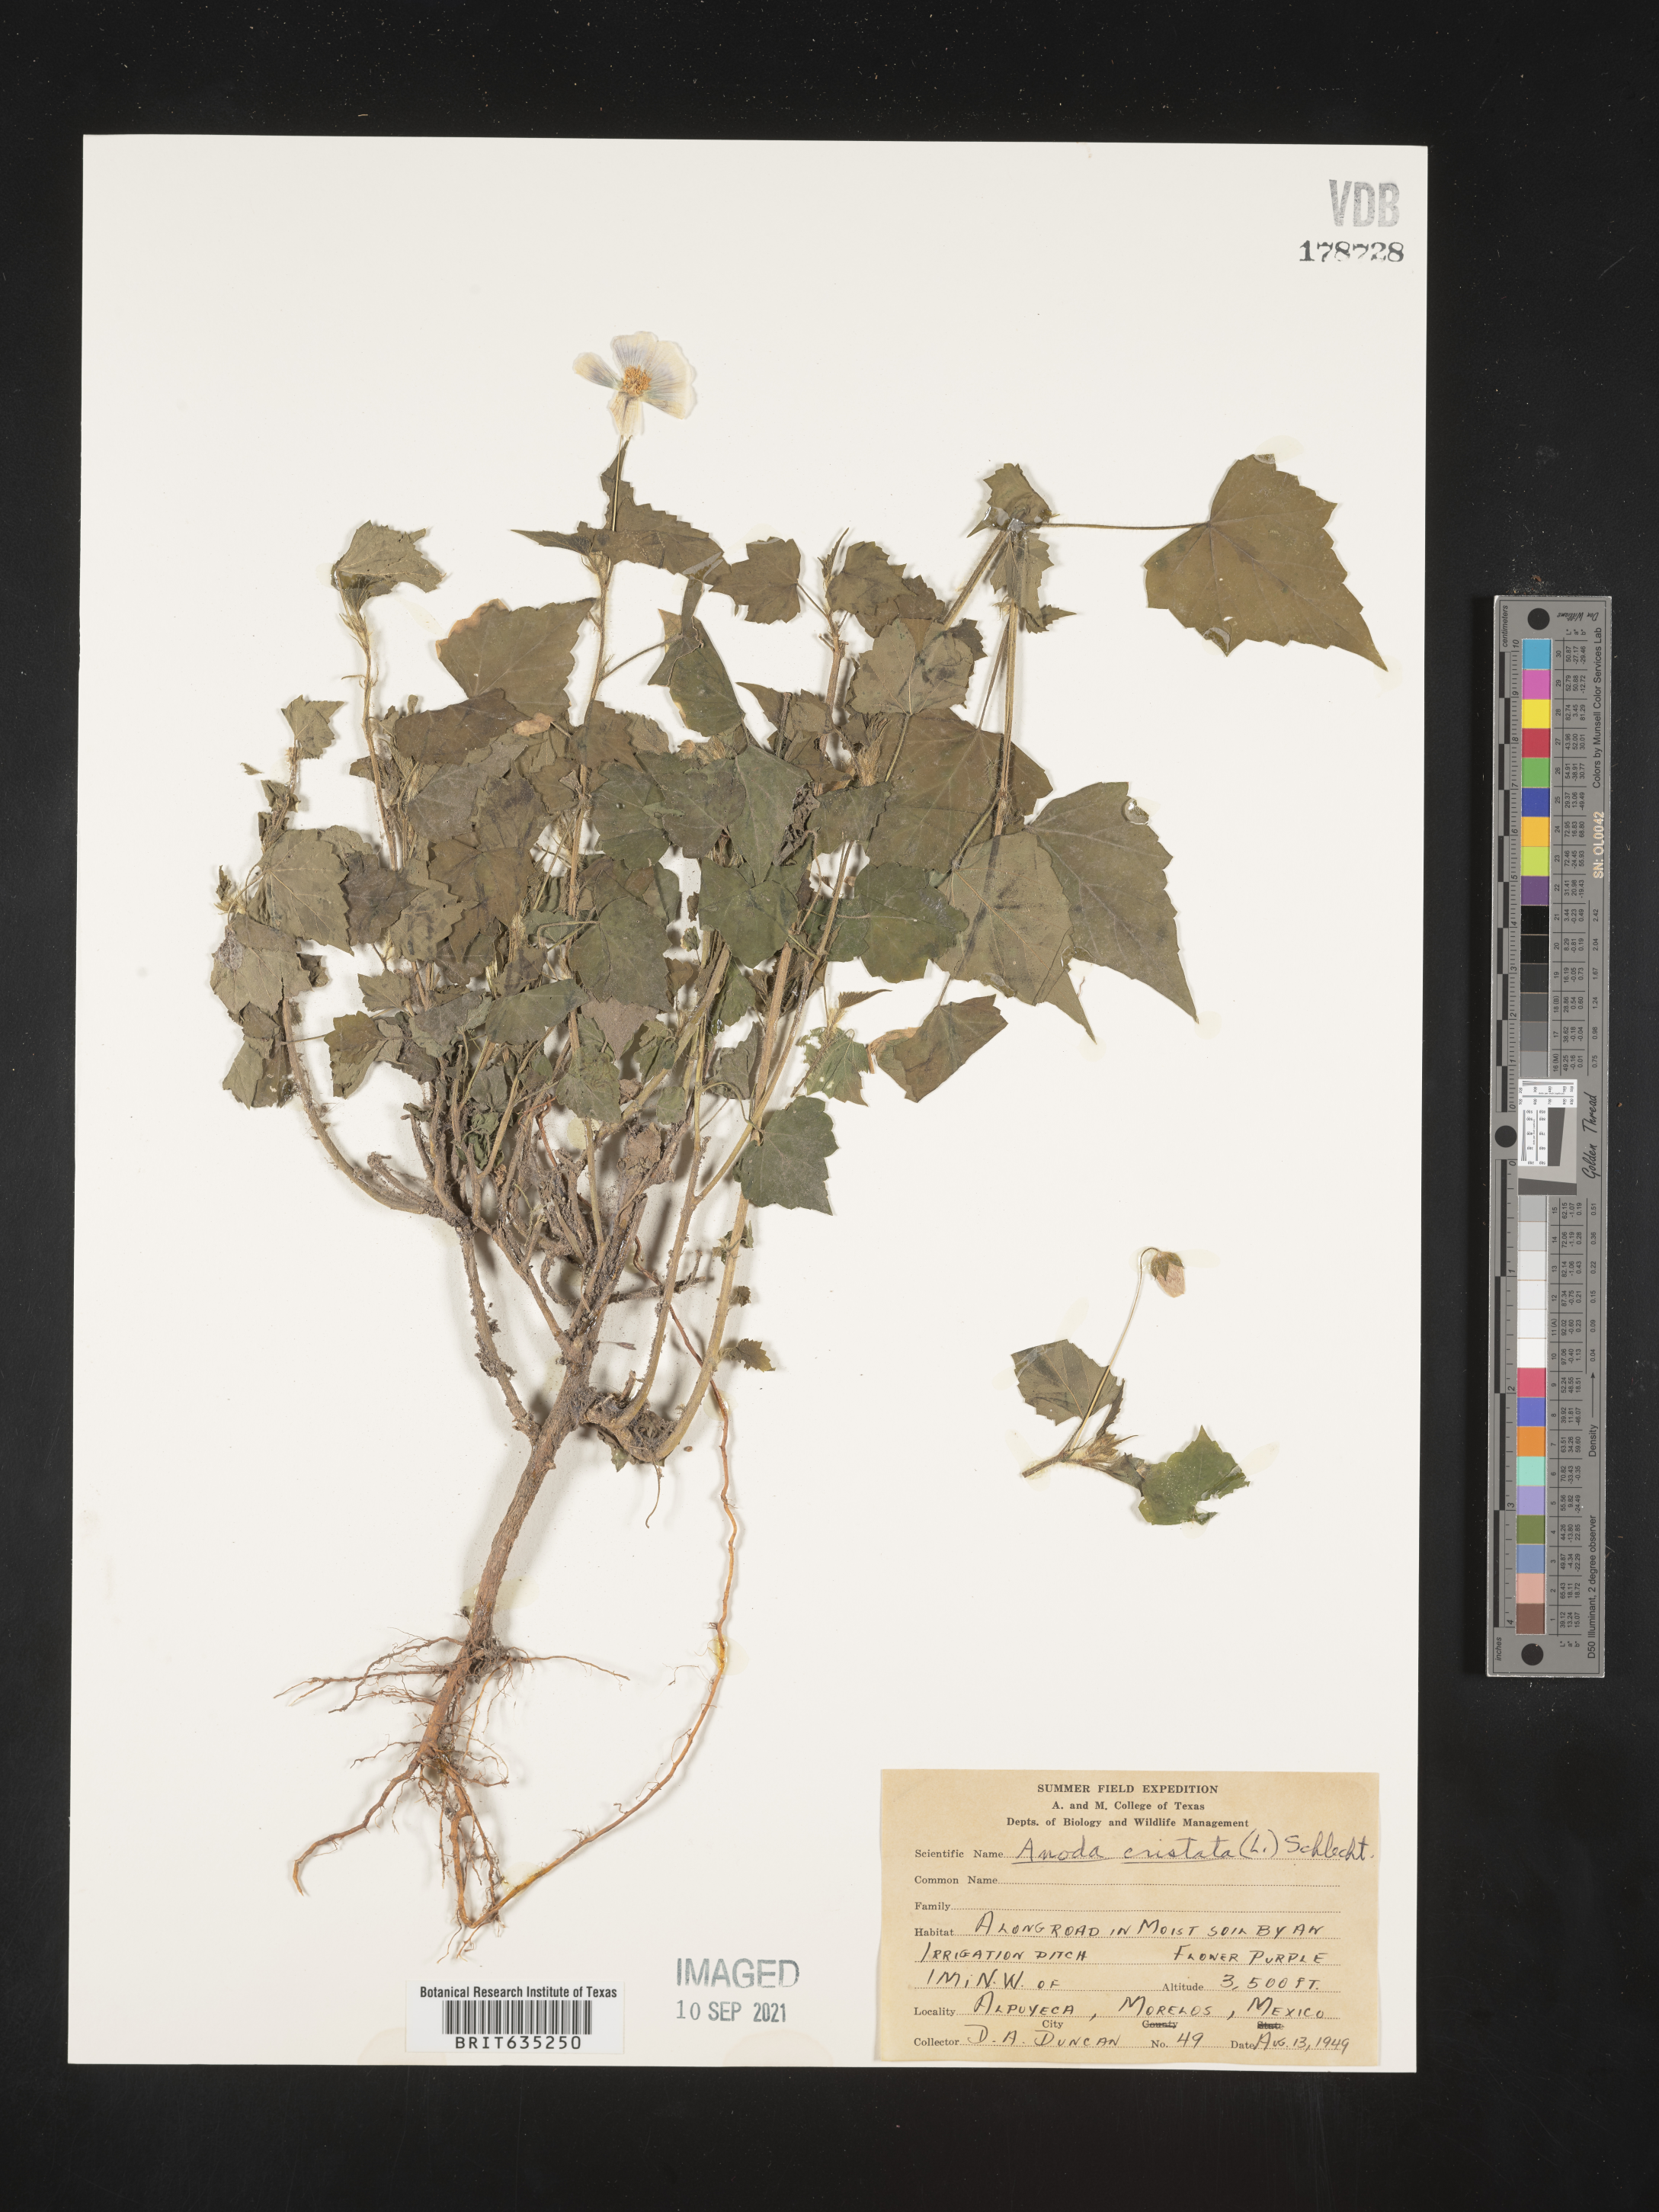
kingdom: Plantae
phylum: Tracheophyta
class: Magnoliopsida
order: Malvales
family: Malvaceae
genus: Anoda
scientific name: Anoda
